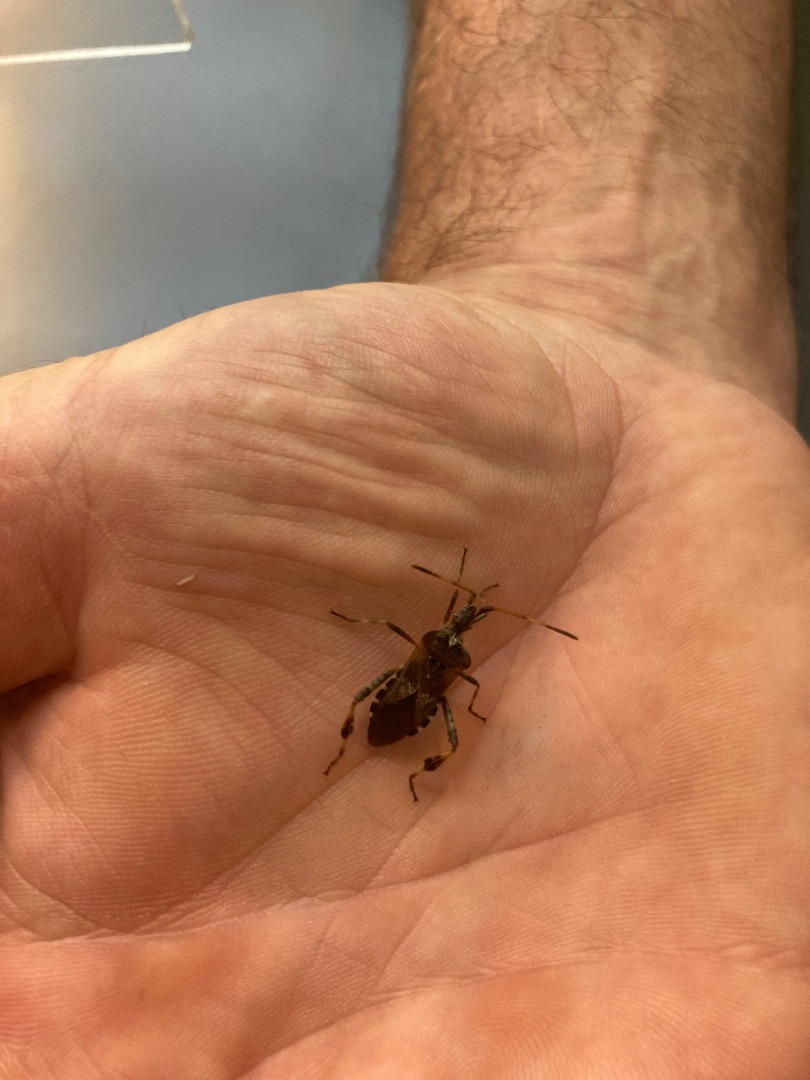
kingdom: Animalia
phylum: Arthropoda
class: Insecta
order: Hemiptera
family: Coreidae
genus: Leptoglossus
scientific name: Leptoglossus occidentalis
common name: Amerikansk fyrretæge
